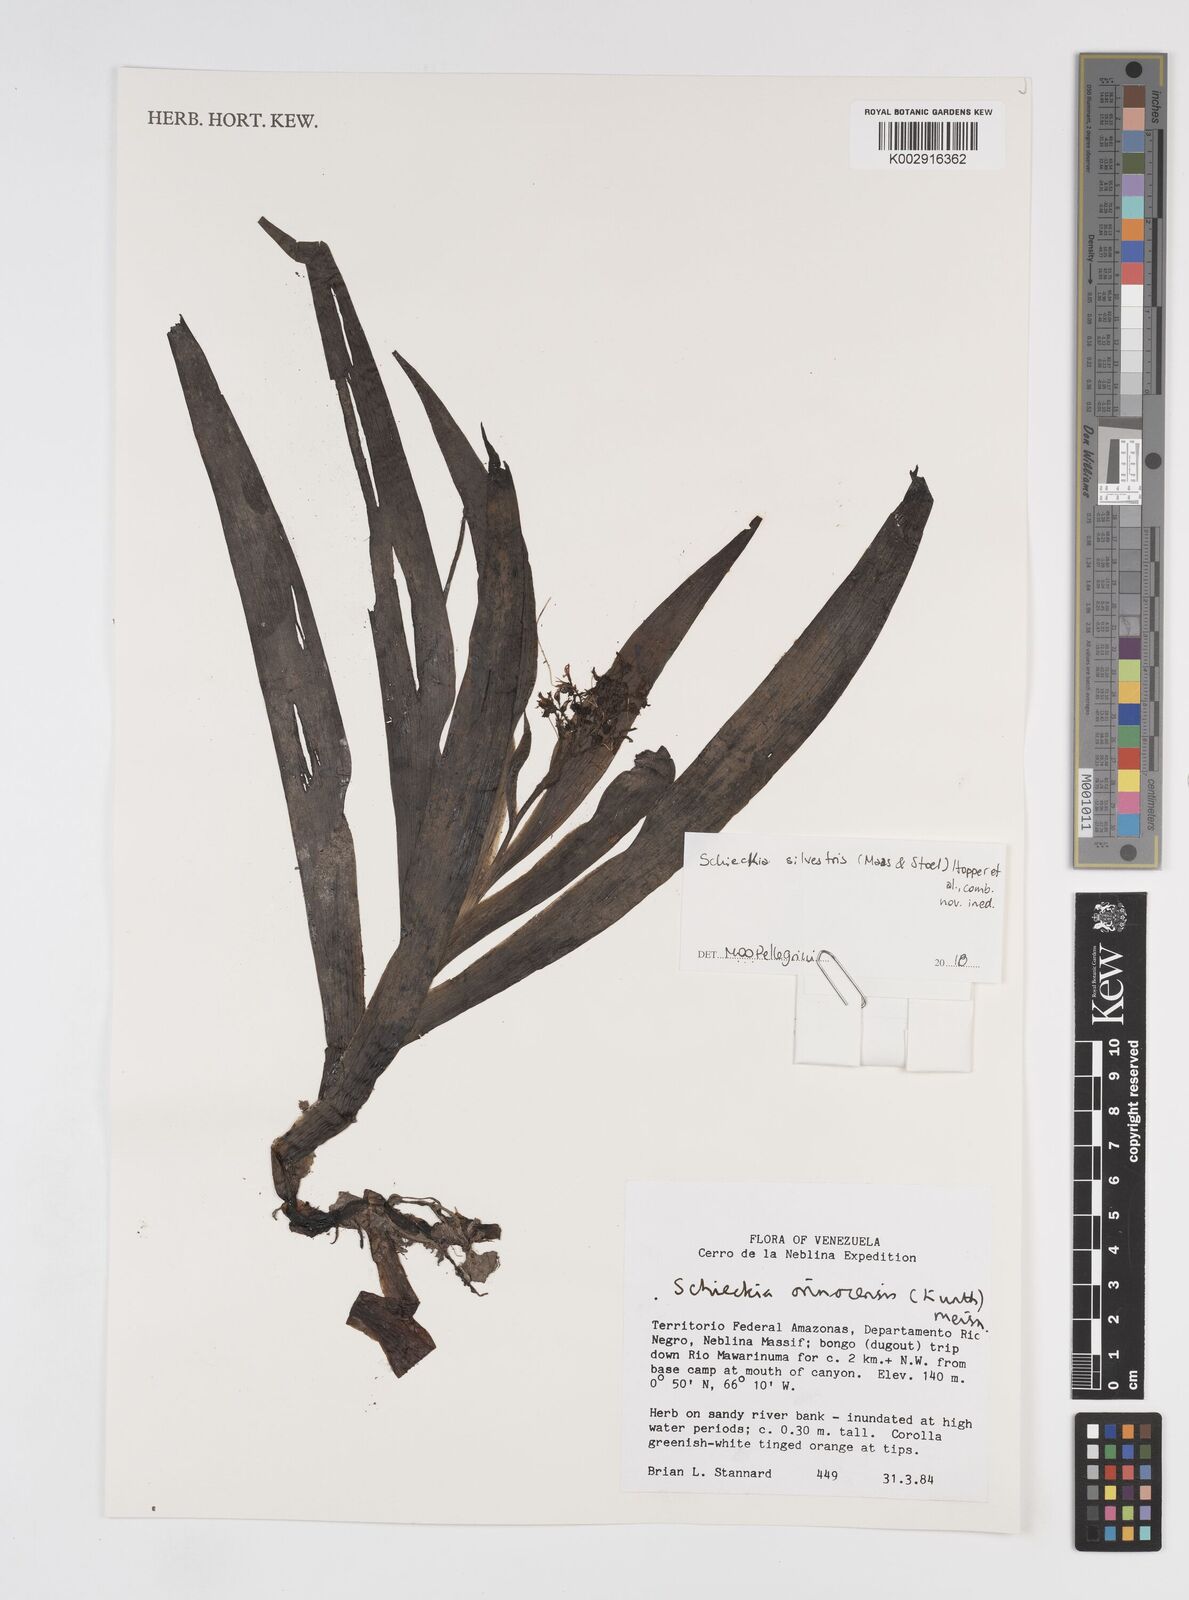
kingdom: Plantae
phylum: Tracheophyta
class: Liliopsida
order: Commelinales
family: Haemodoraceae
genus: Schiekia
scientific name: Schiekia orinocensis
